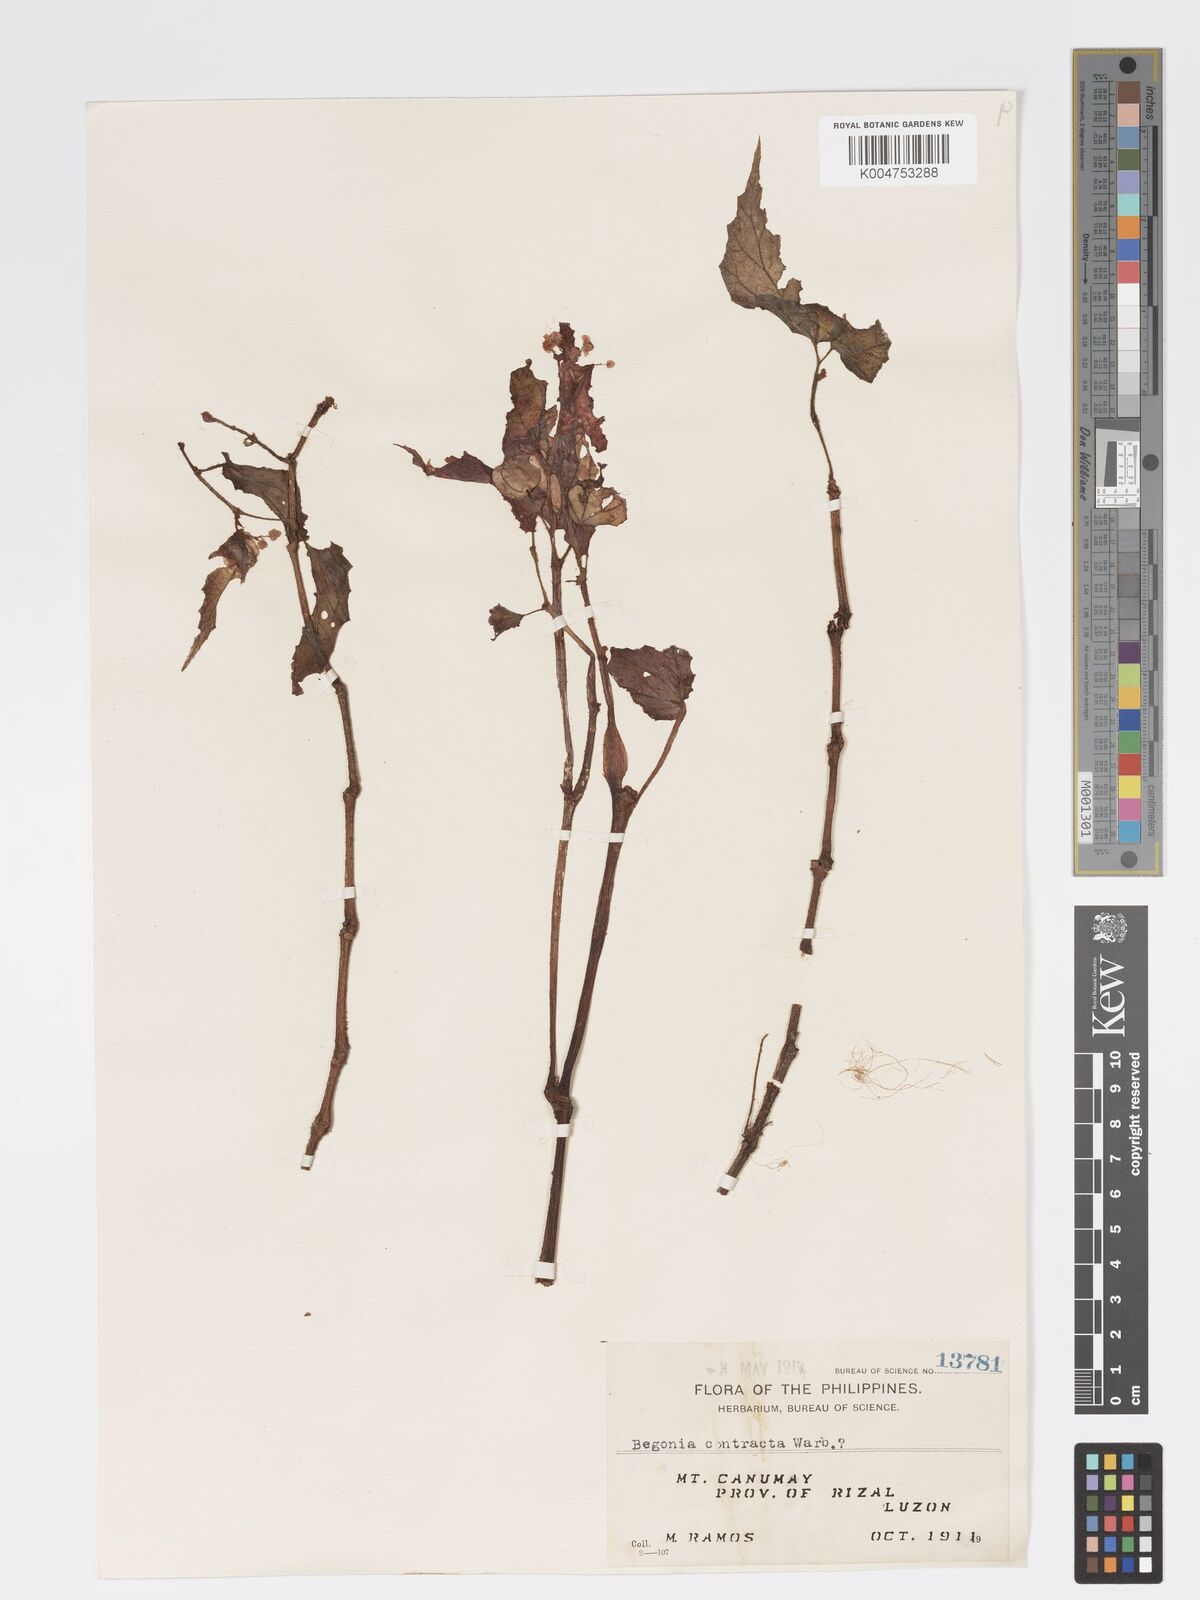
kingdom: Plantae
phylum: Tracheophyta
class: Magnoliopsida
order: Cucurbitales
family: Begoniaceae
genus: Begonia
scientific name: Begonia contracta
